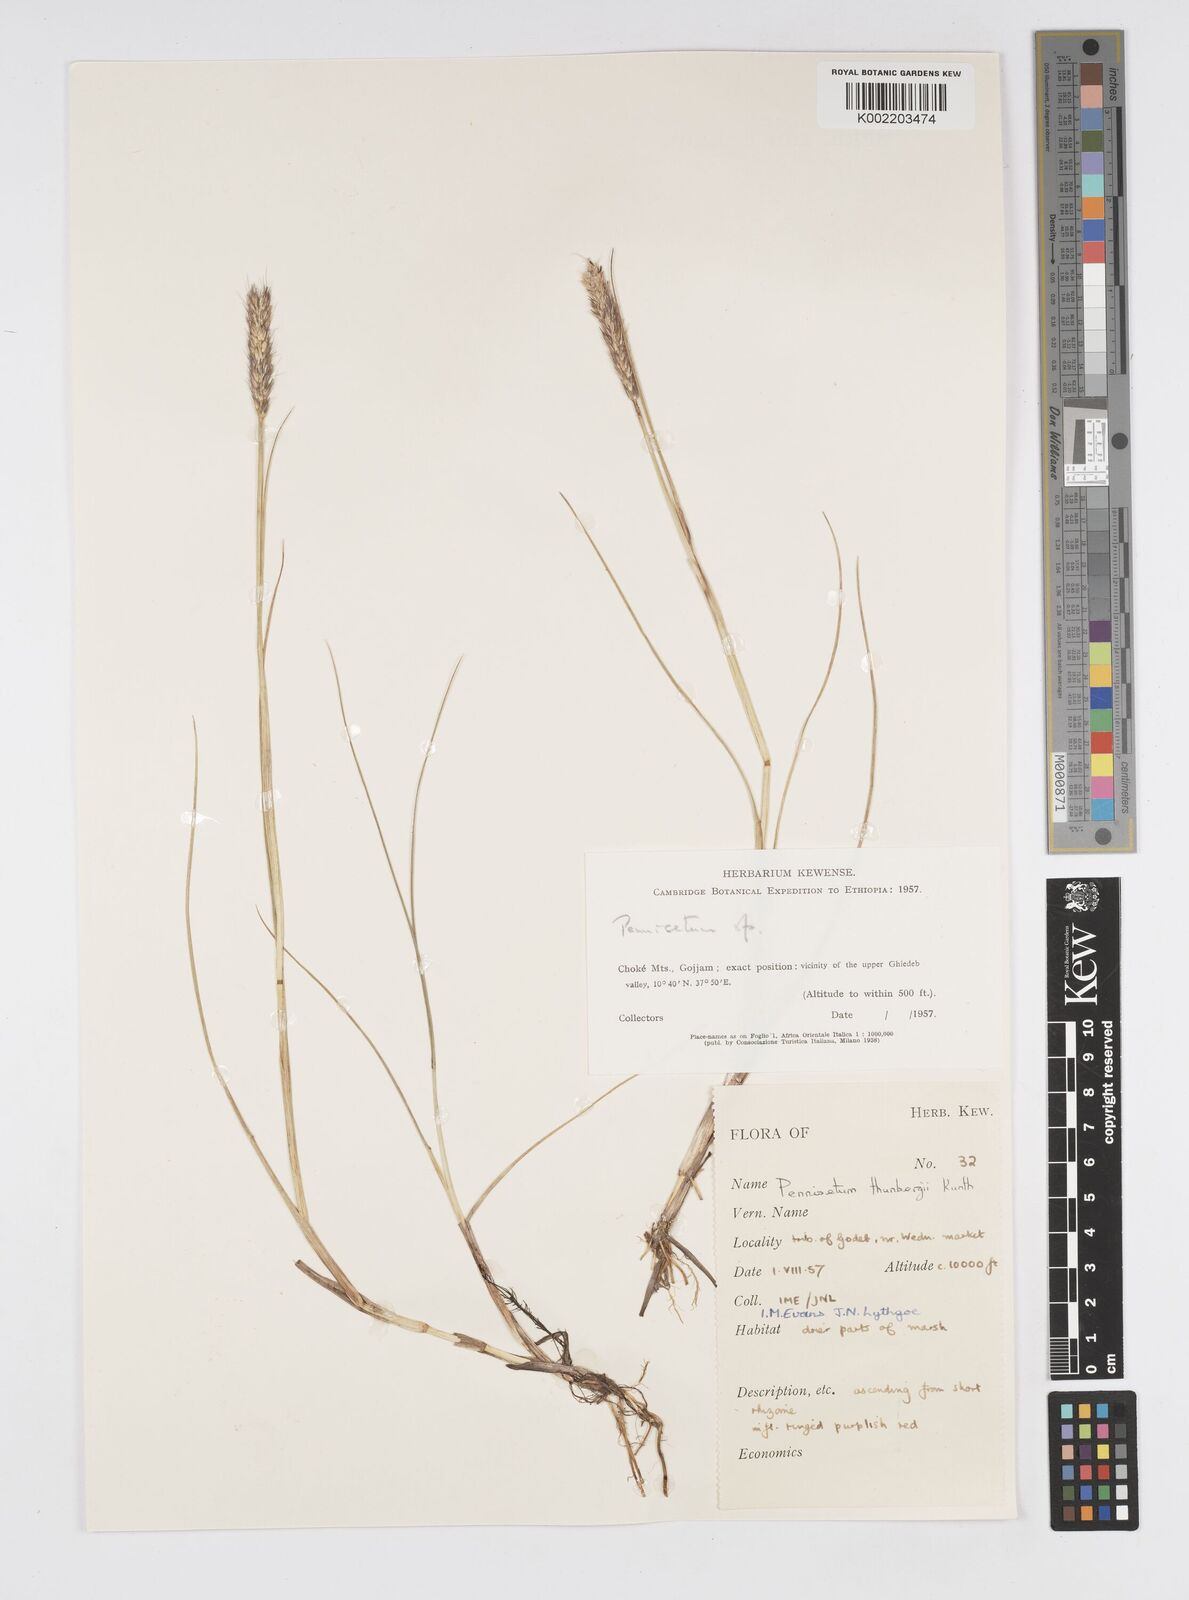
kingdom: Plantae
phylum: Tracheophyta
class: Liliopsida
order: Poales
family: Poaceae
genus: Cenchrus
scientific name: Cenchrus geniculatus
